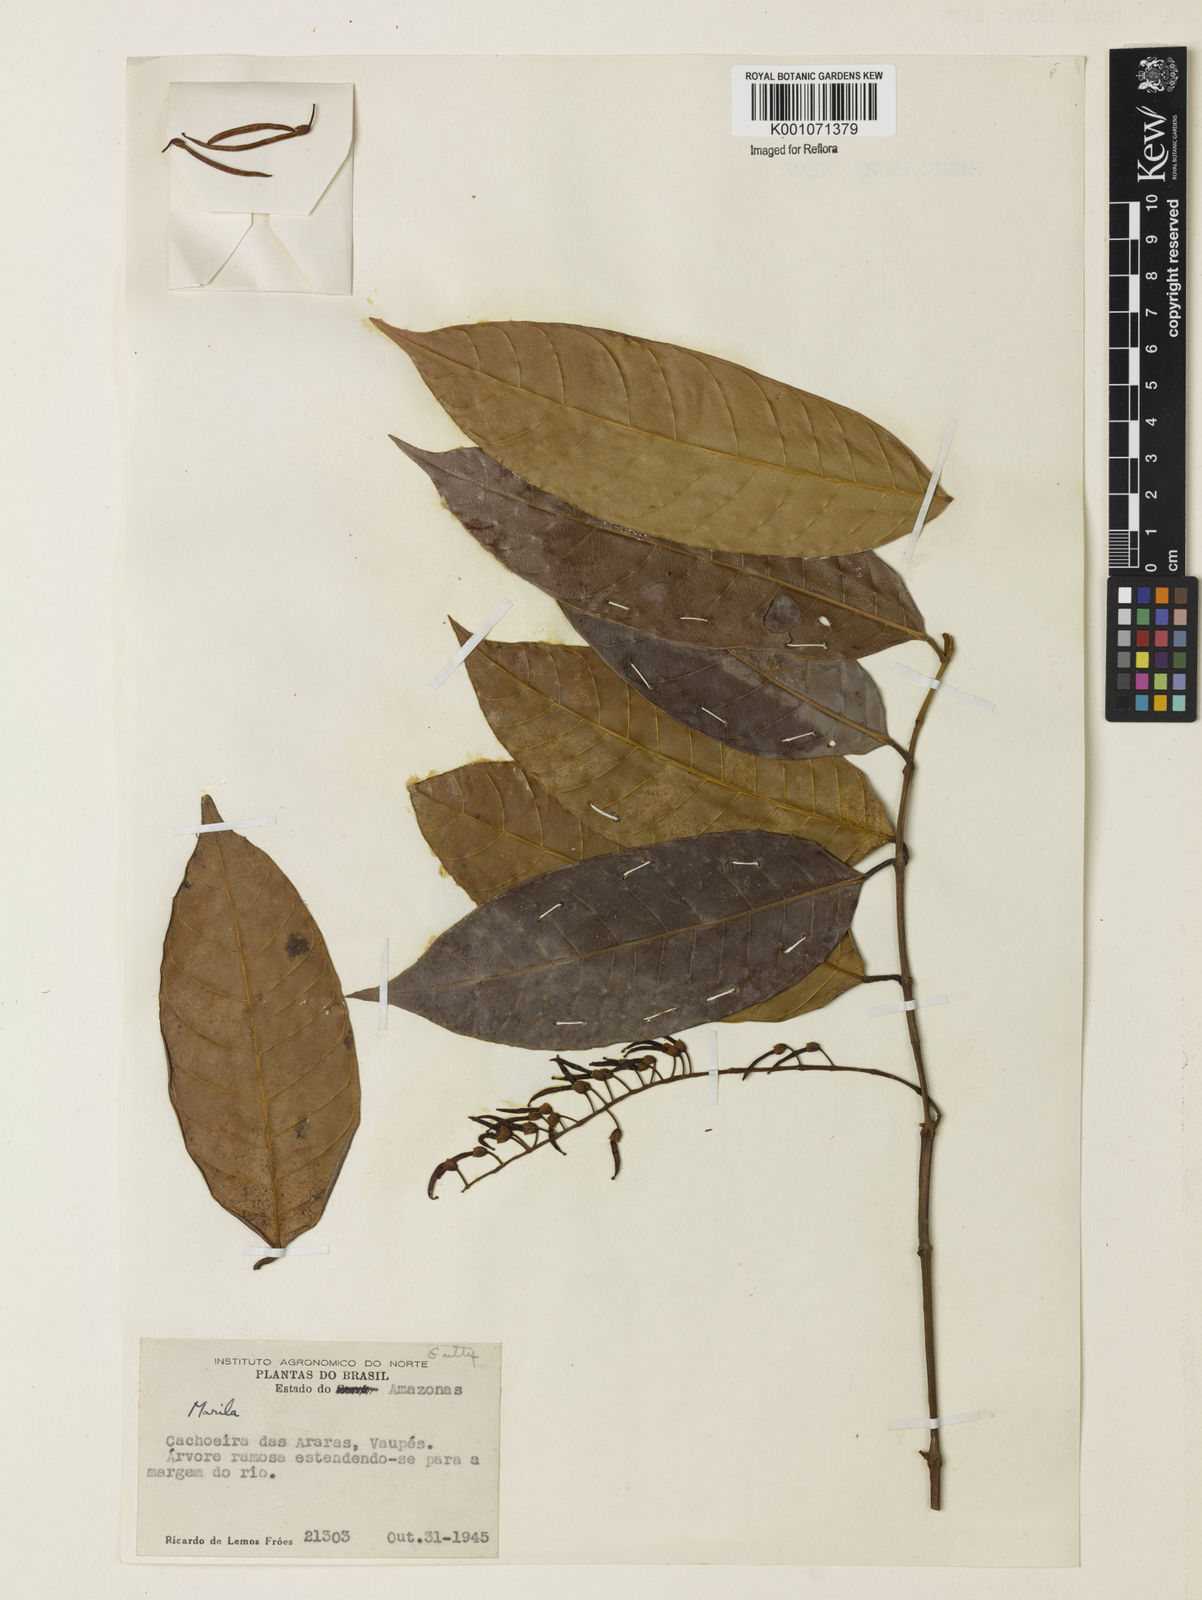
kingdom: Plantae
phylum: Tracheophyta
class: Magnoliopsida
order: Malpighiales
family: Calophyllaceae
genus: Marila
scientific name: Marila
